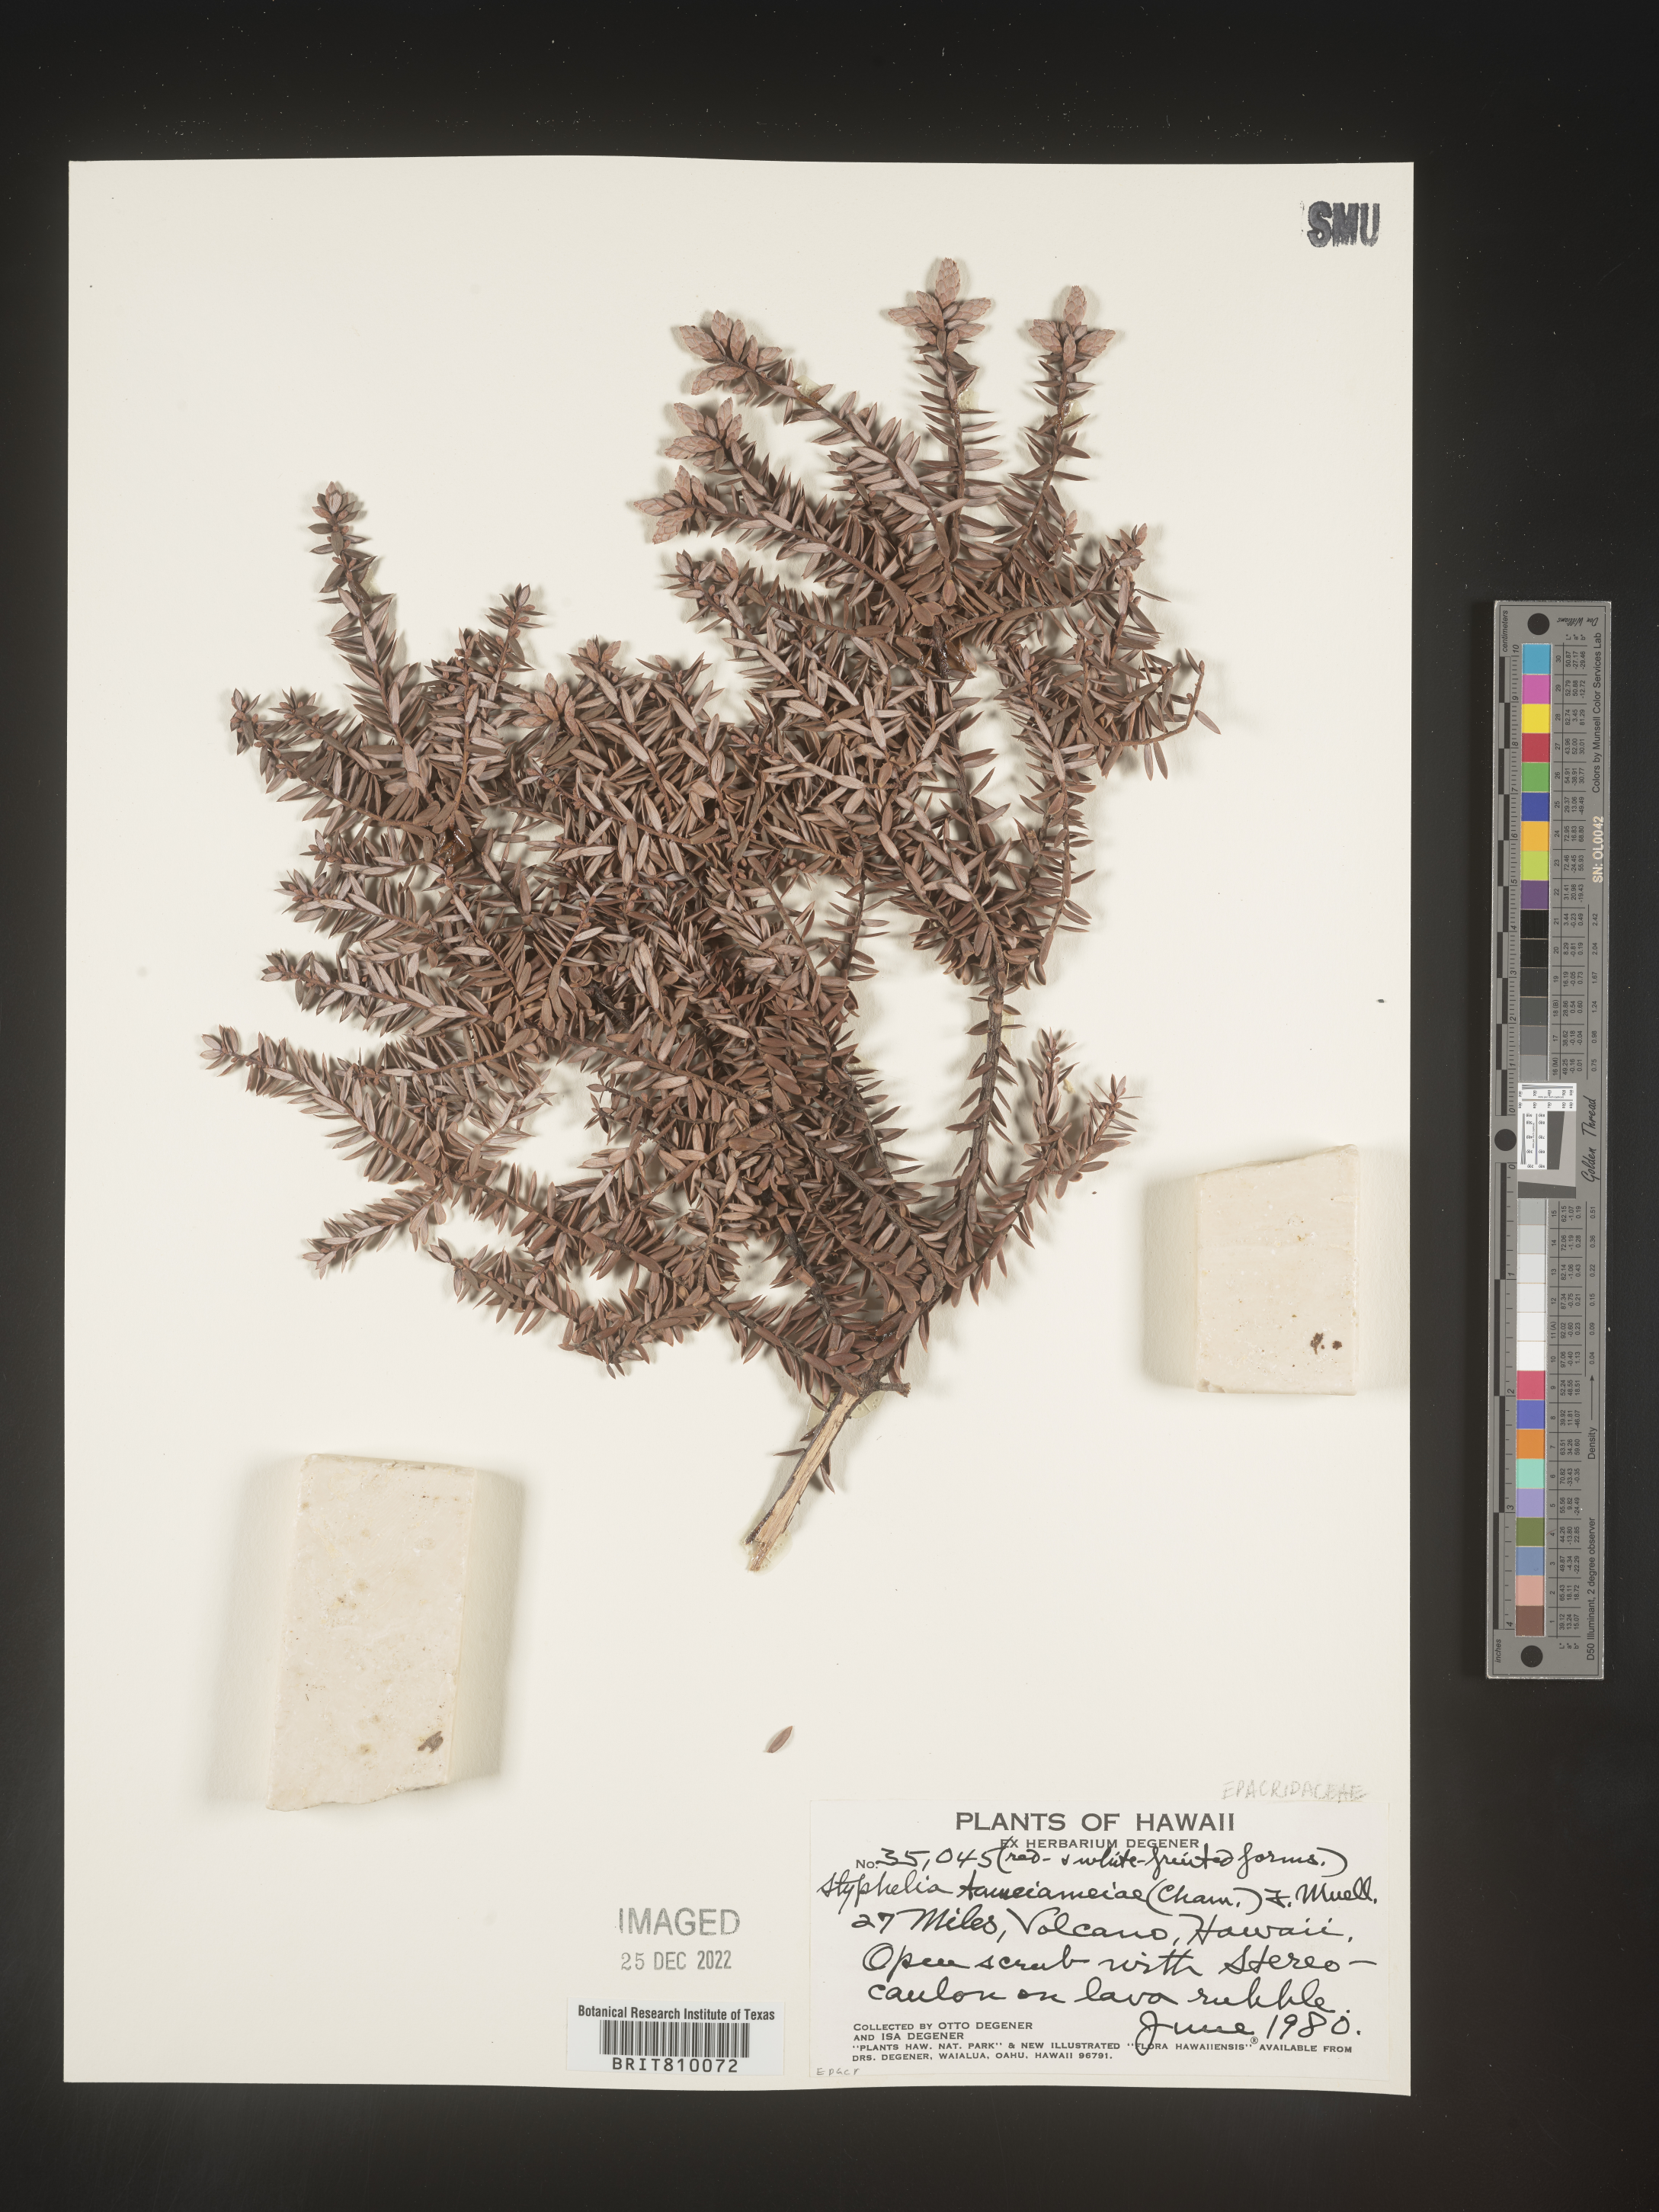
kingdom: Plantae
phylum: Tracheophyta
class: Magnoliopsida
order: Ericales
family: Ericaceae
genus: Styphelia
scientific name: Styphelia
